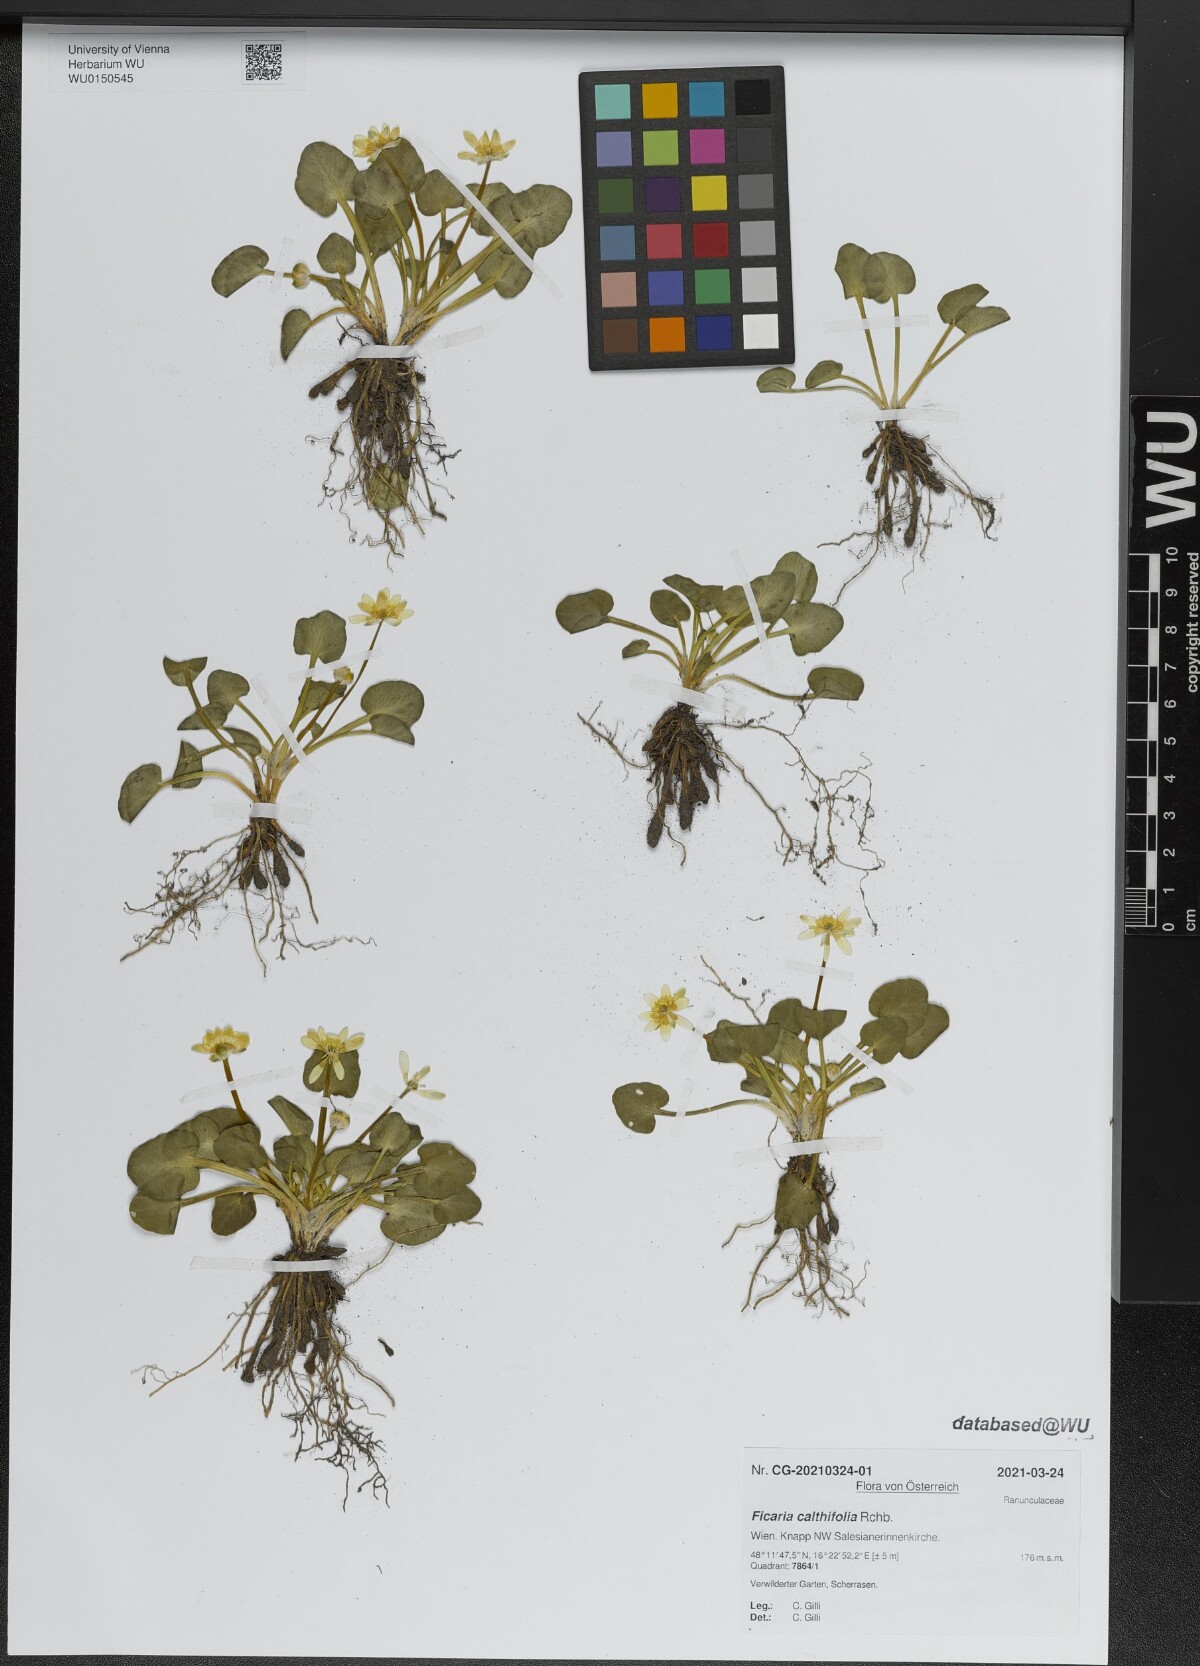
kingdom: Plantae
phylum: Tracheophyta
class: Magnoliopsida
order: Ranunculales
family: Ranunculaceae
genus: Ficaria
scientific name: Ficaria calthifolia
